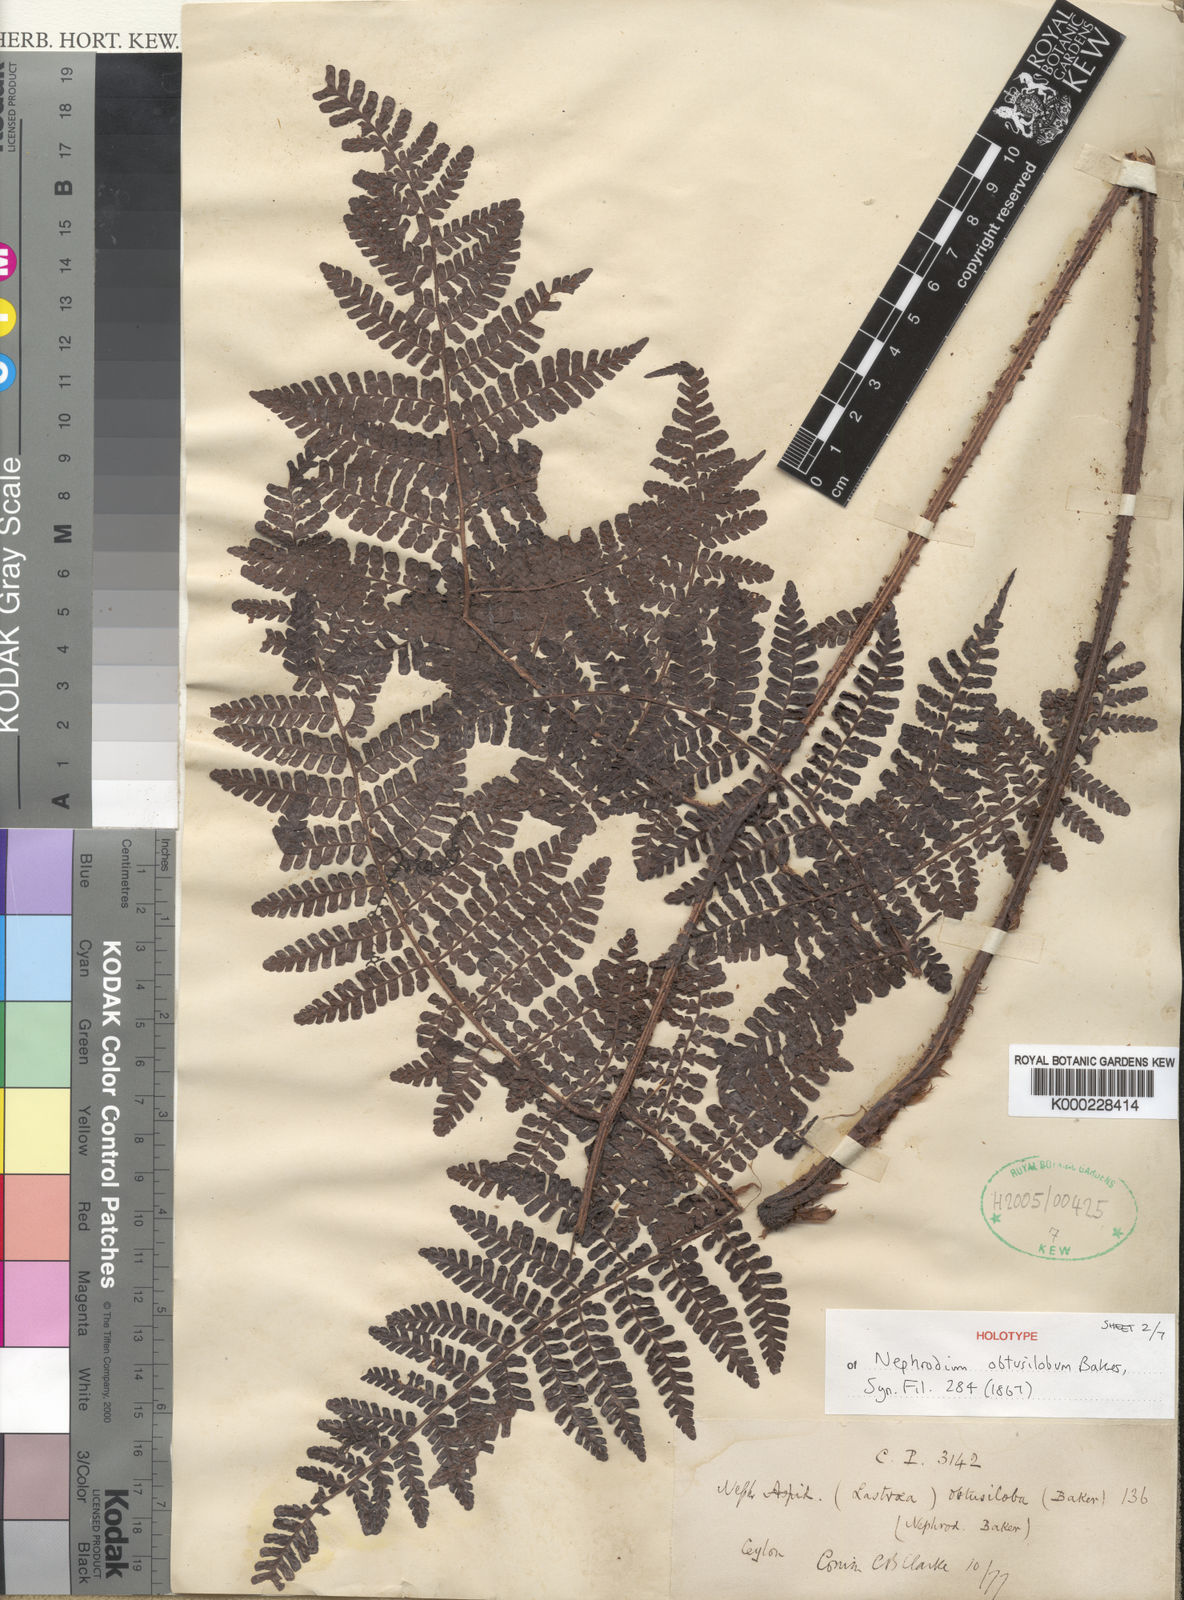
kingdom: Plantae
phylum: Tracheophyta
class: Polypodiopsida
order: Polypodiales
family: Dryopteridaceae
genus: Dryopteris
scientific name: Dryopteris obtusiloba
